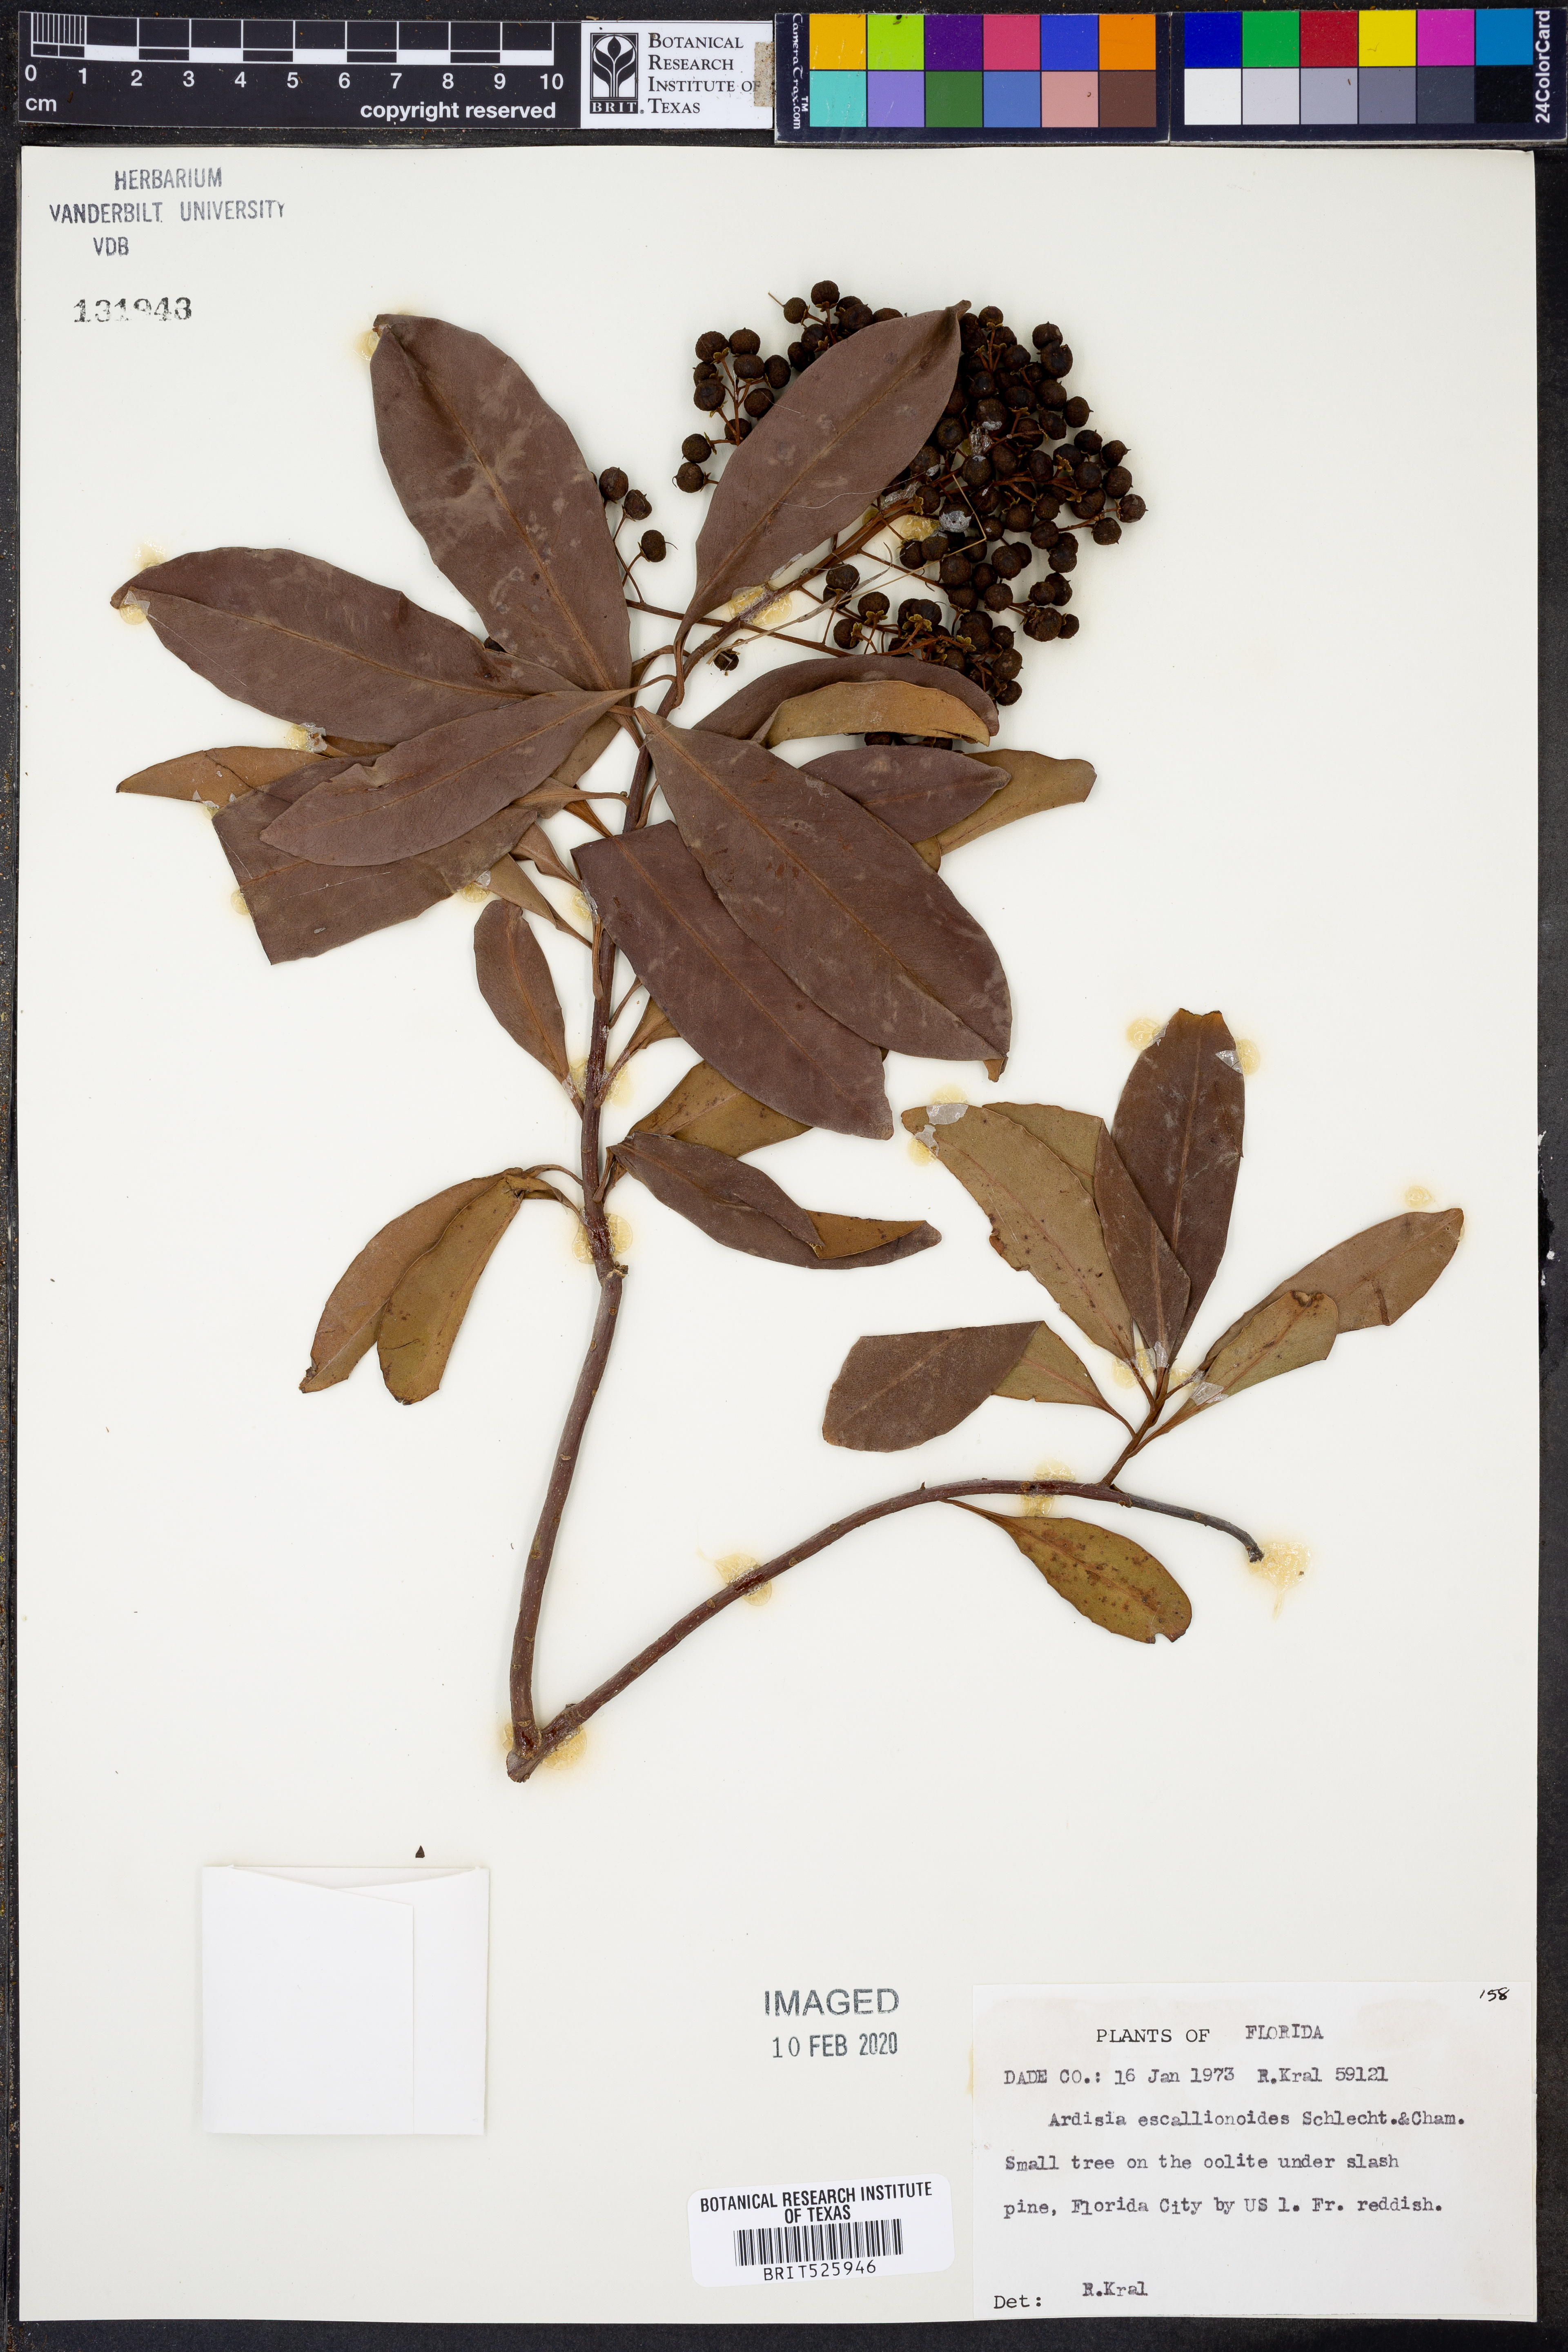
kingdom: Plantae
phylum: Tracheophyta
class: Magnoliopsida
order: Ericales
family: Primulaceae
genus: Ardisia
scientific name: Ardisia escallonioides
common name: Island marlberry
